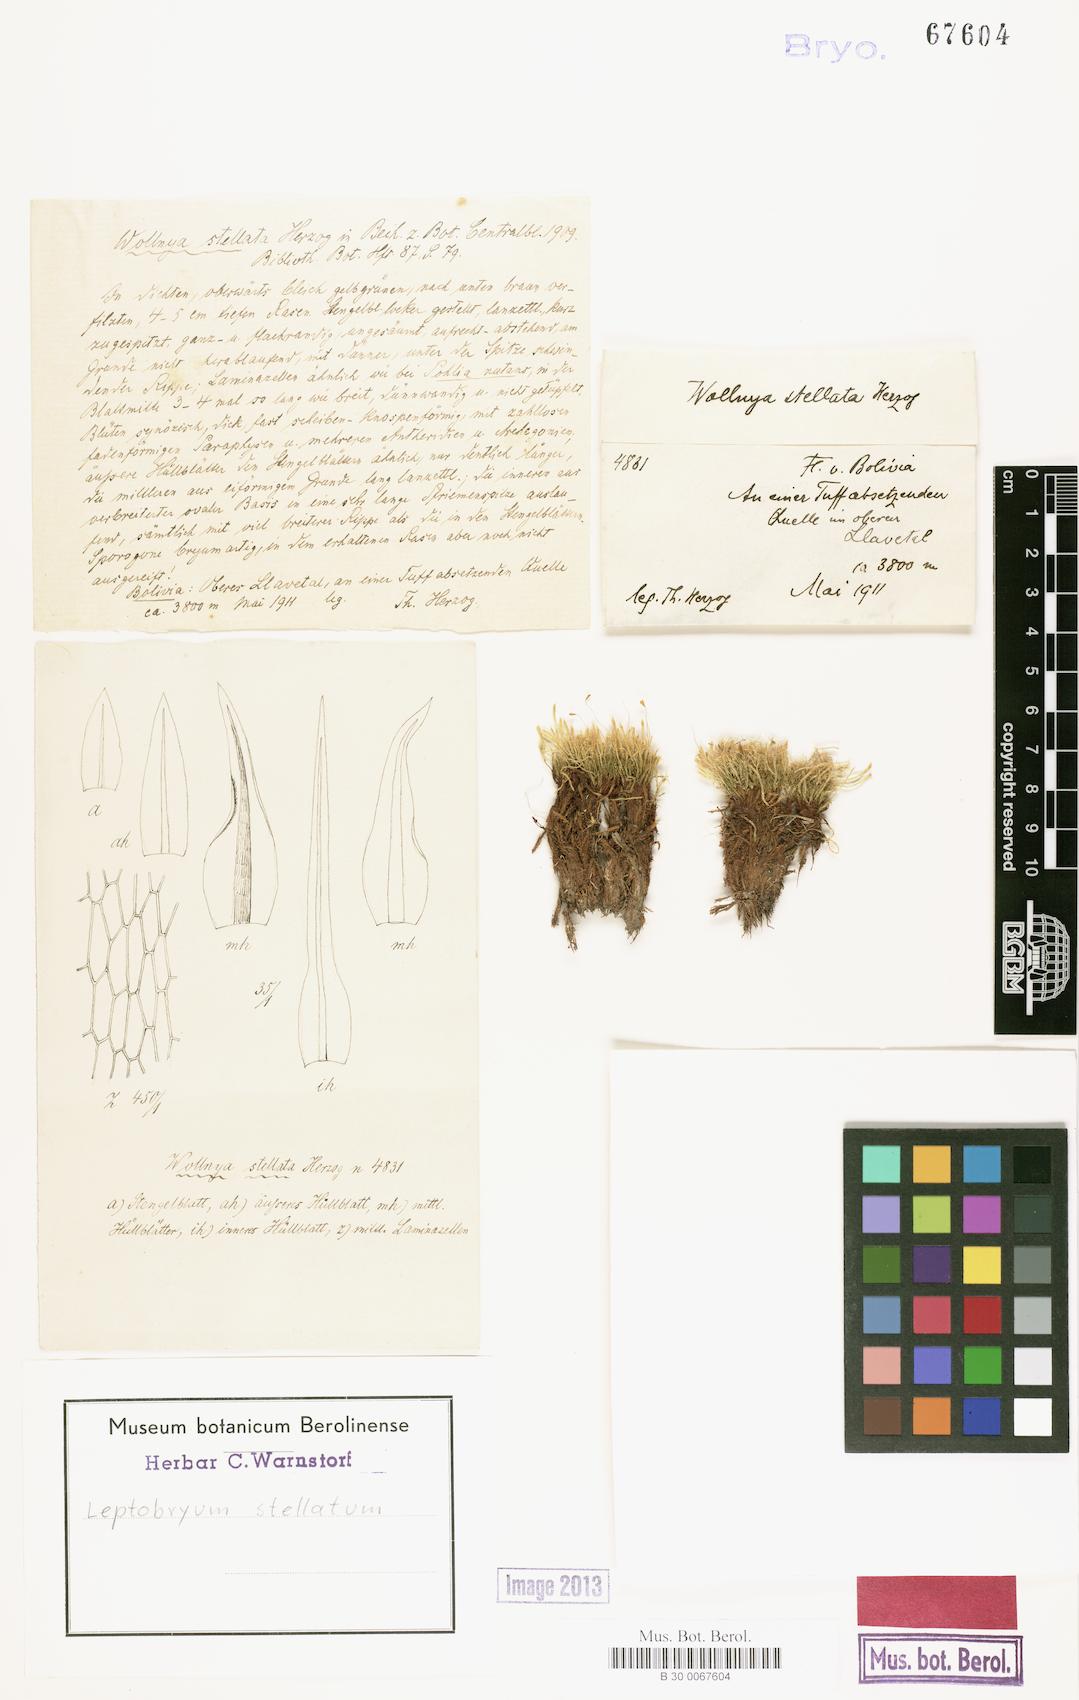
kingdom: Plantae
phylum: Bryophyta
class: Bryopsida
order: Bryales
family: Mniaceae
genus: Pohlia
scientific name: Pohlia wilsonii
